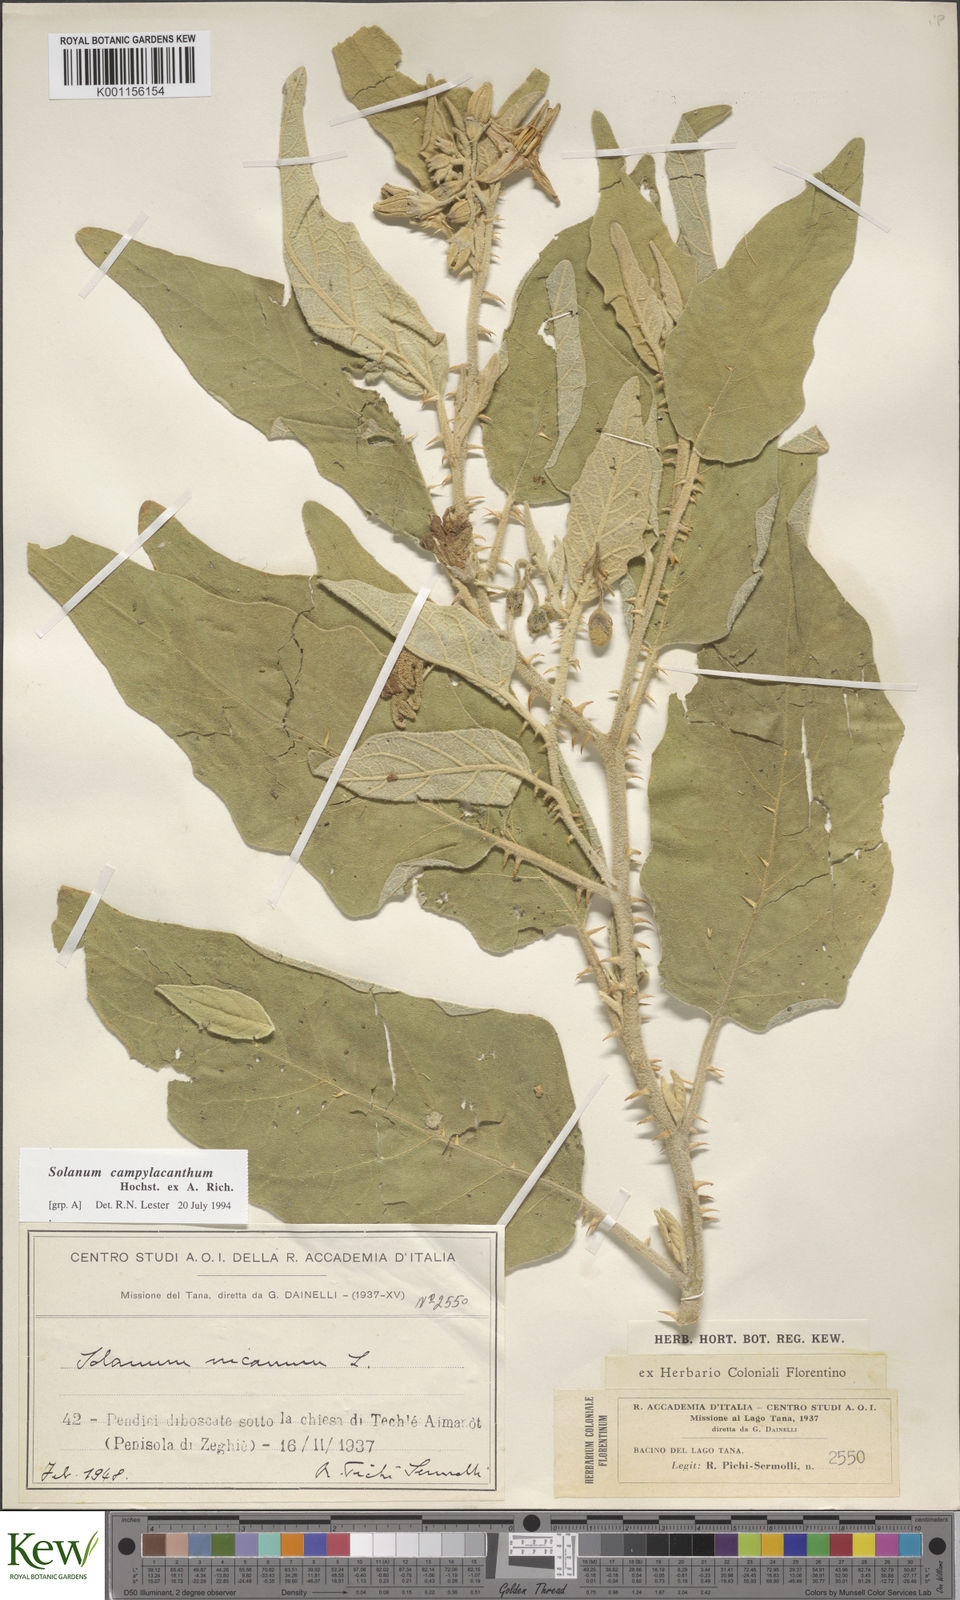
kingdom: Plantae
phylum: Tracheophyta
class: Magnoliopsida
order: Solanales
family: Solanaceae
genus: Solanum
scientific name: Solanum campylacanthum
